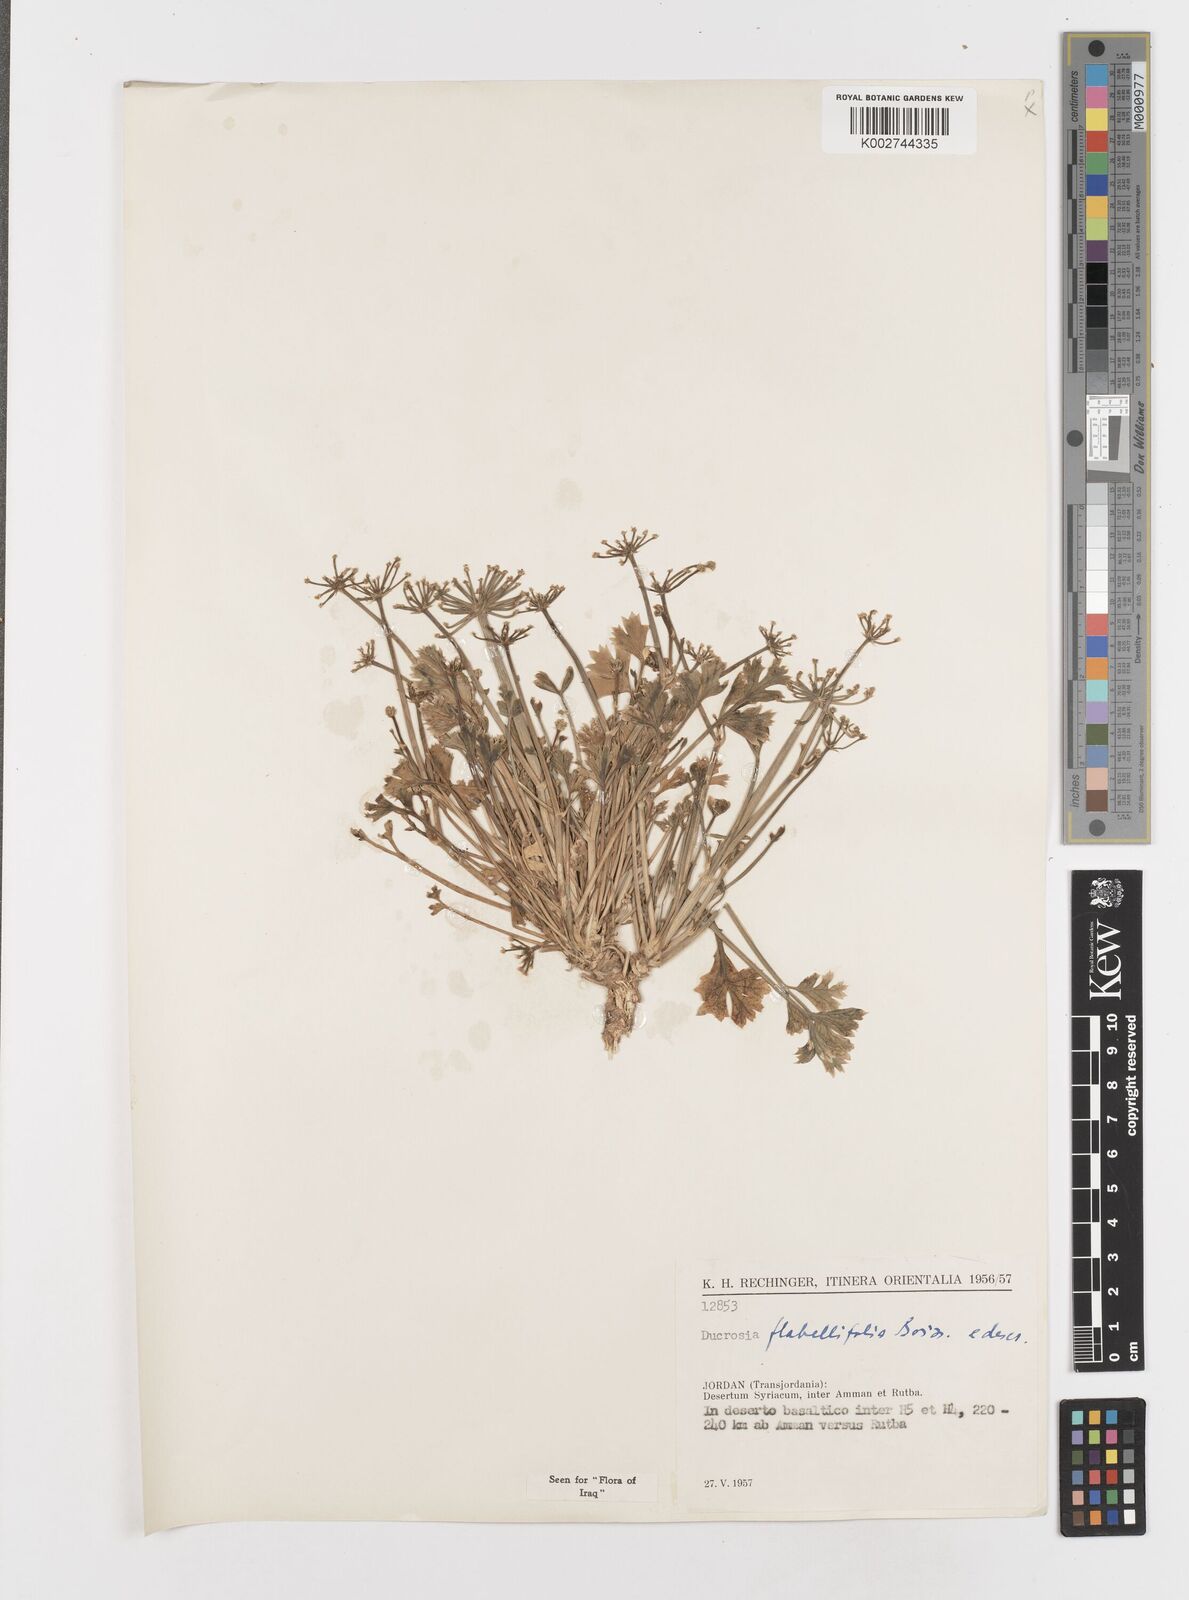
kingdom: Plantae
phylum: Tracheophyta
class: Magnoliopsida
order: Apiales
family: Apiaceae
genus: Ducrosia
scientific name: Ducrosia flabellifolia
